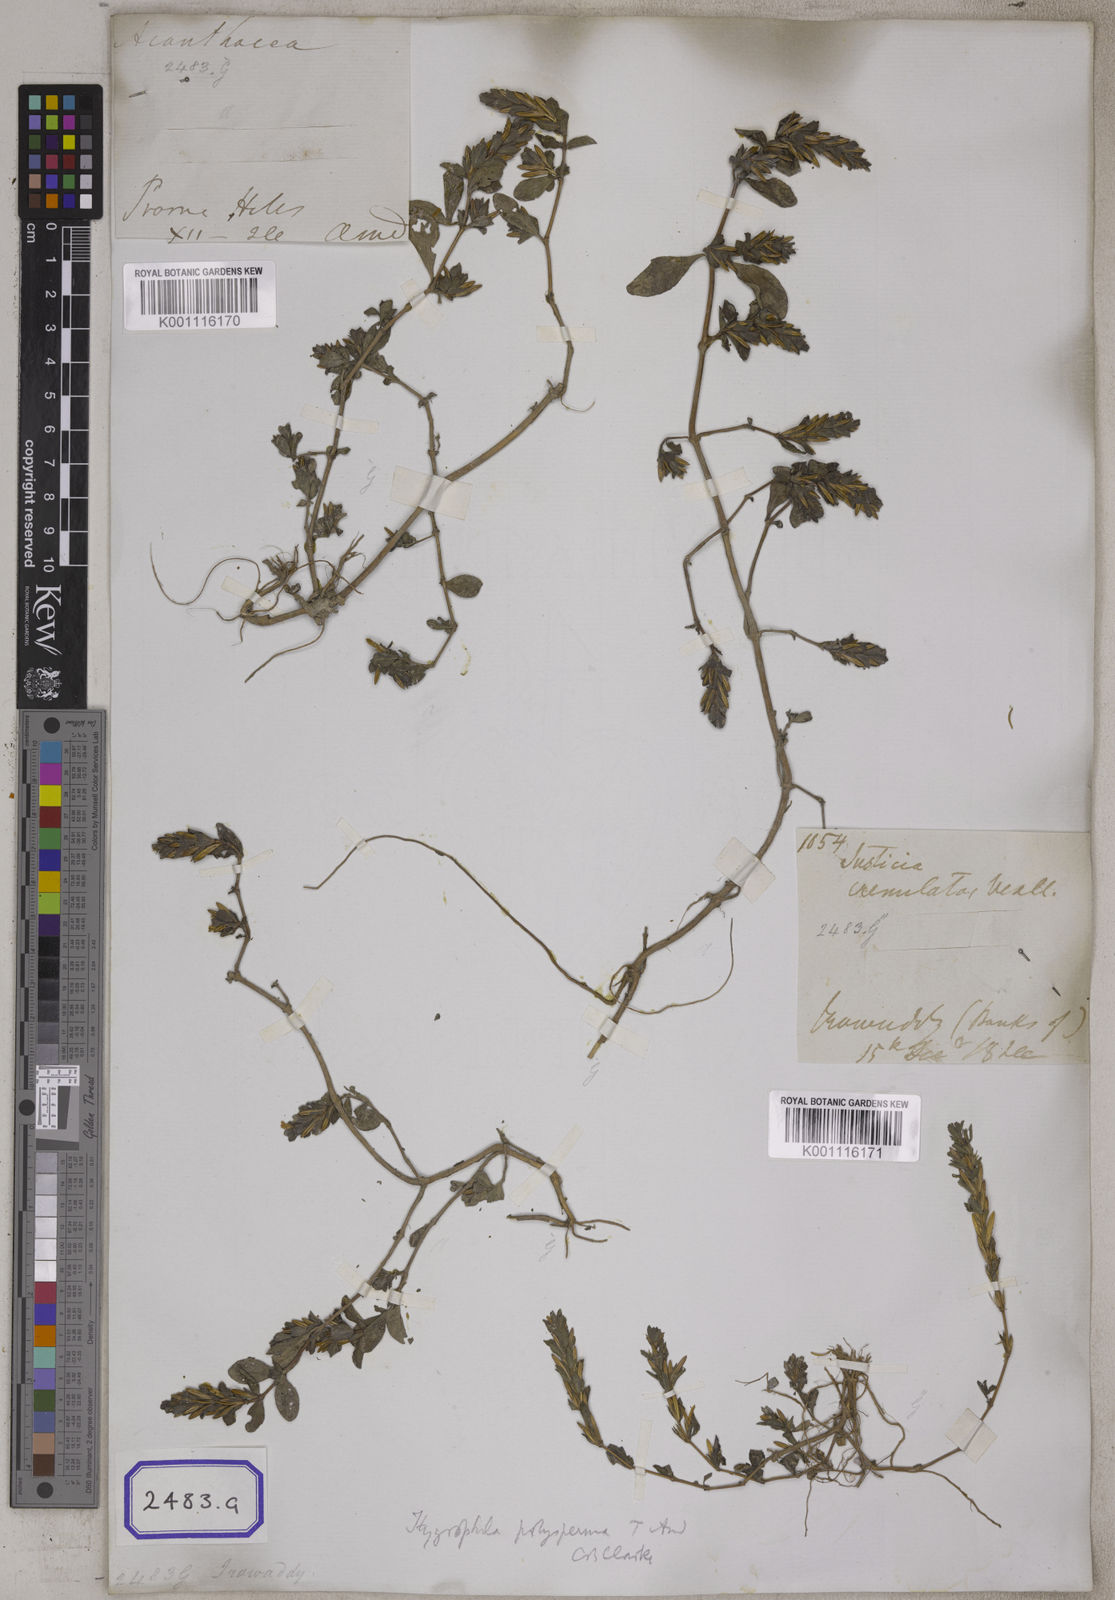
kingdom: Plantae
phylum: Tracheophyta
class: Magnoliopsida
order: Lamiales
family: Acanthaceae
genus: Hygrophila
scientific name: Hygrophila polysperma
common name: Indian swampweed
